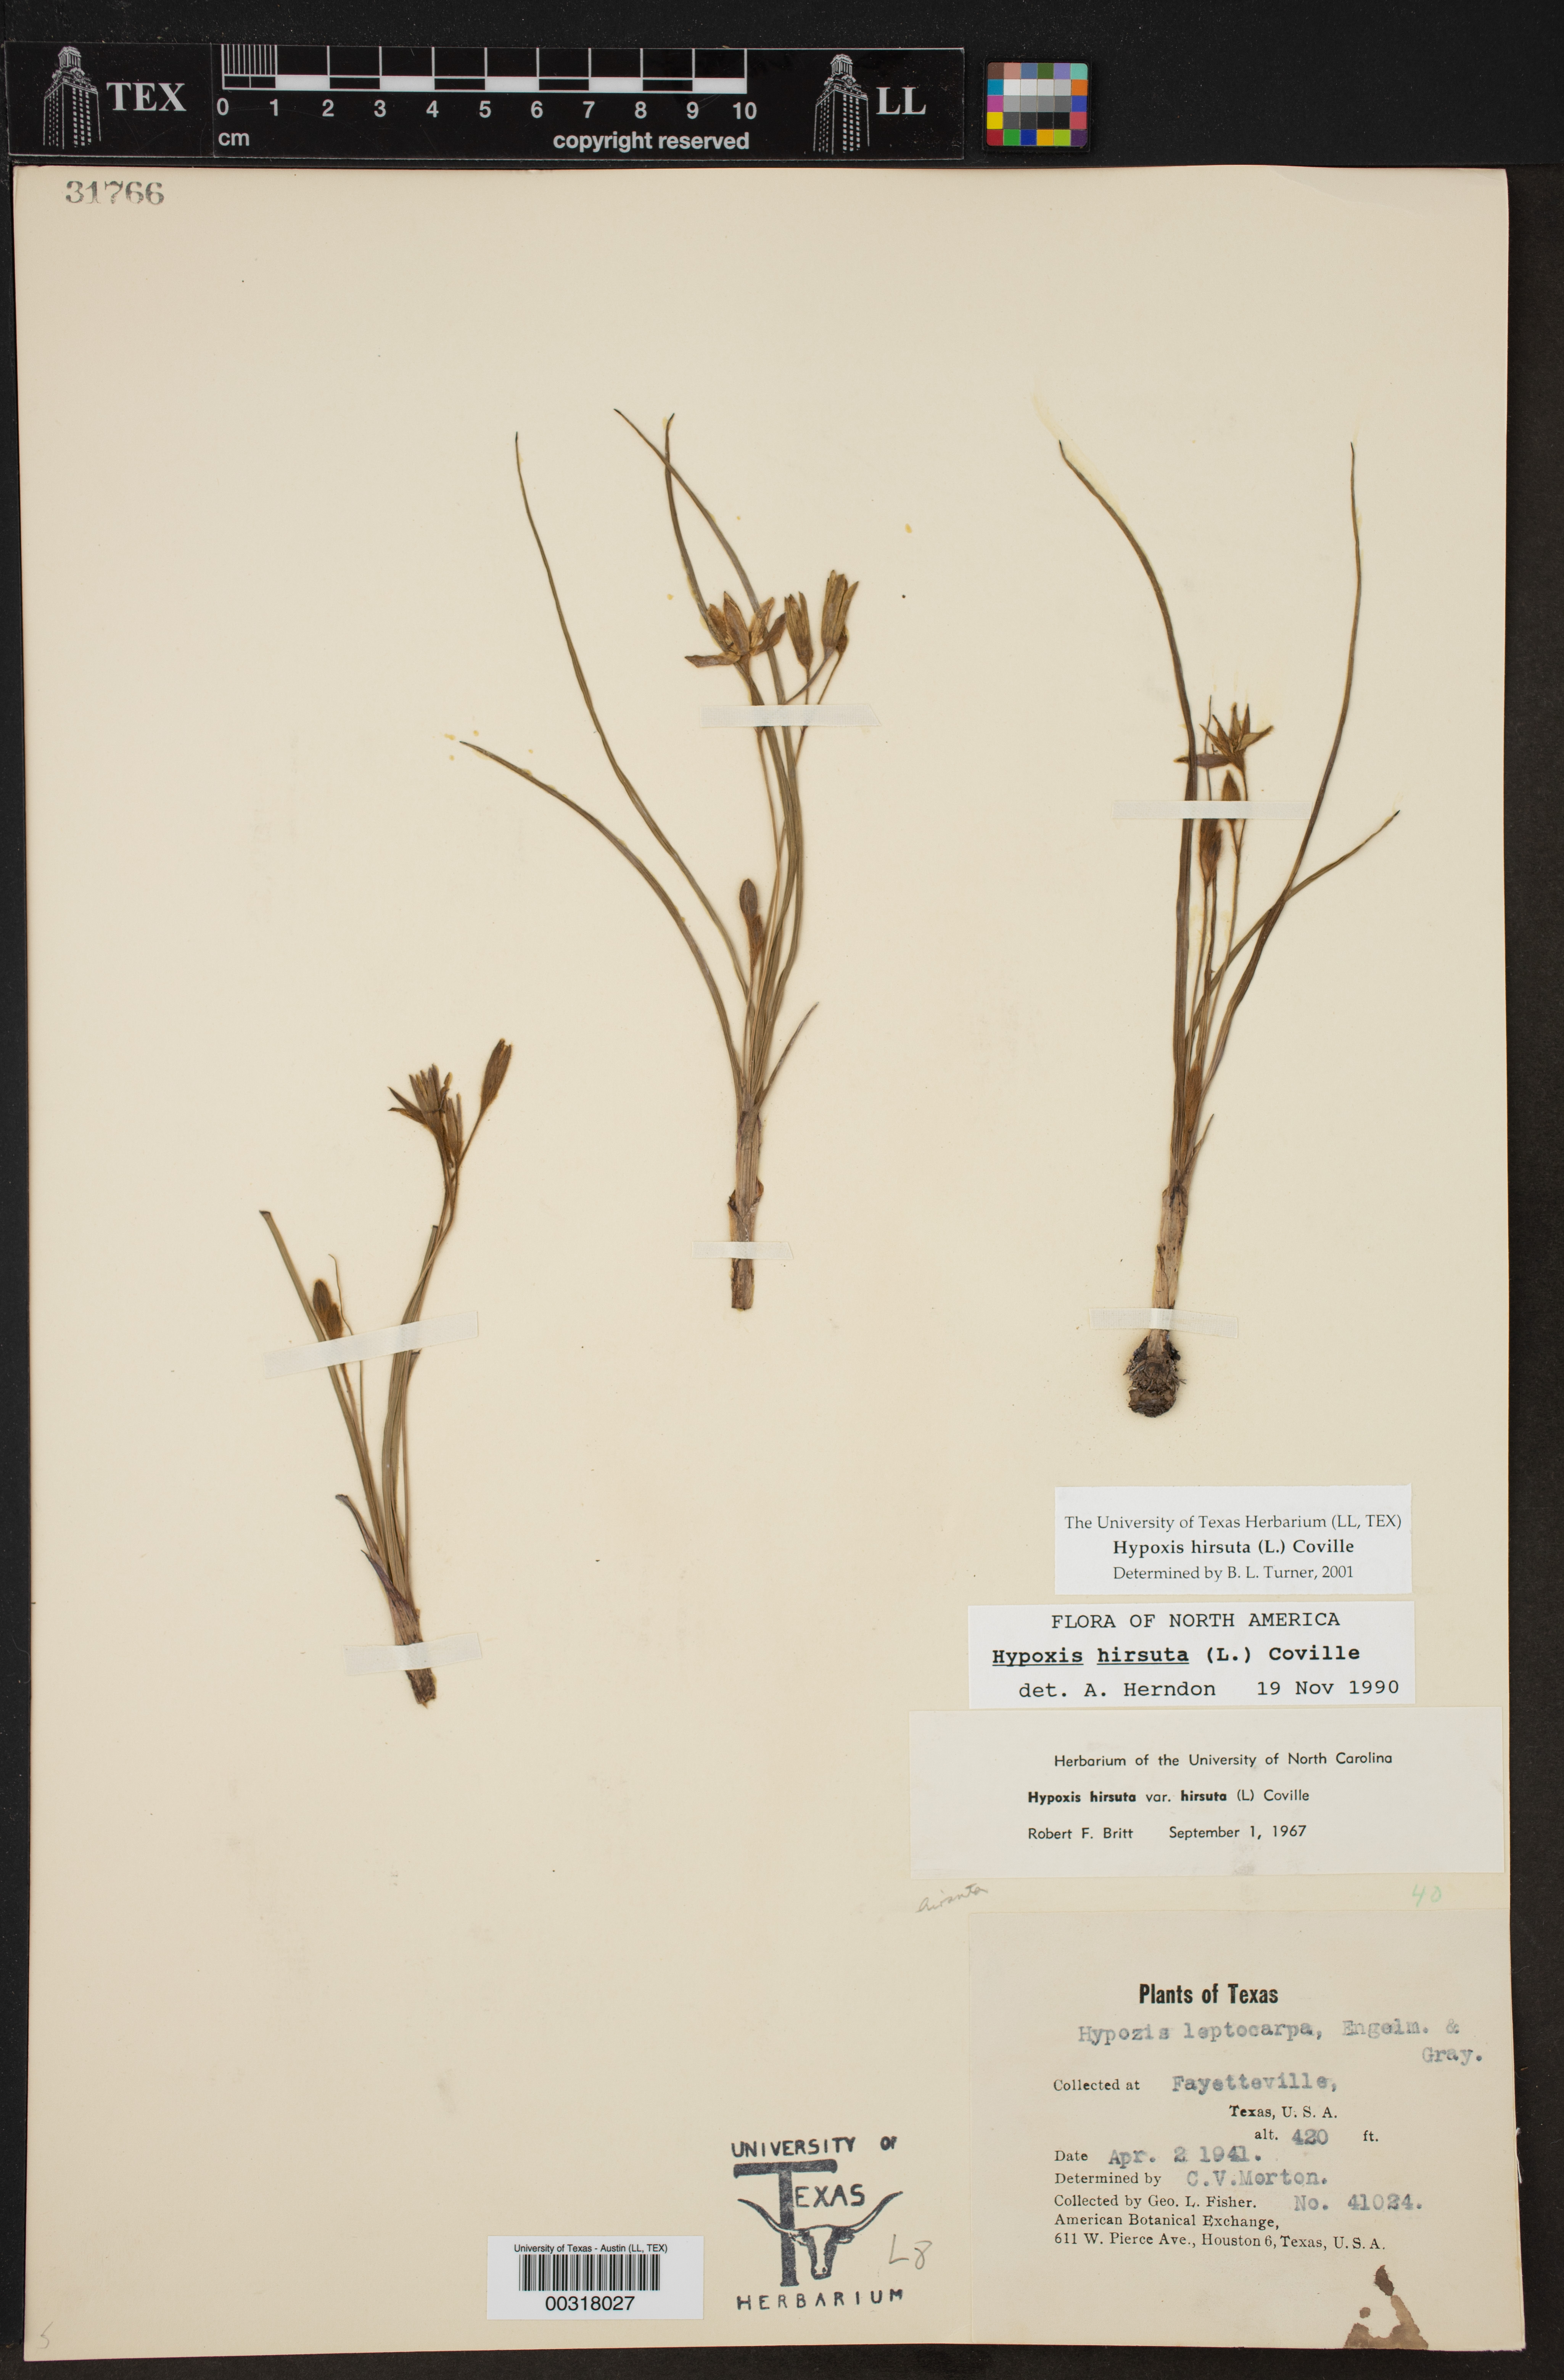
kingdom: Plantae
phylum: Tracheophyta
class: Liliopsida
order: Asparagales
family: Hypoxidaceae
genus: Hypoxis
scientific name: Hypoxis hirsuta
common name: Common goldstar
